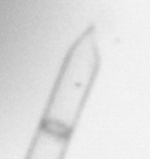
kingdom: Chromista
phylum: Ochrophyta
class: Bacillariophyceae
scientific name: Bacillariophyceae
